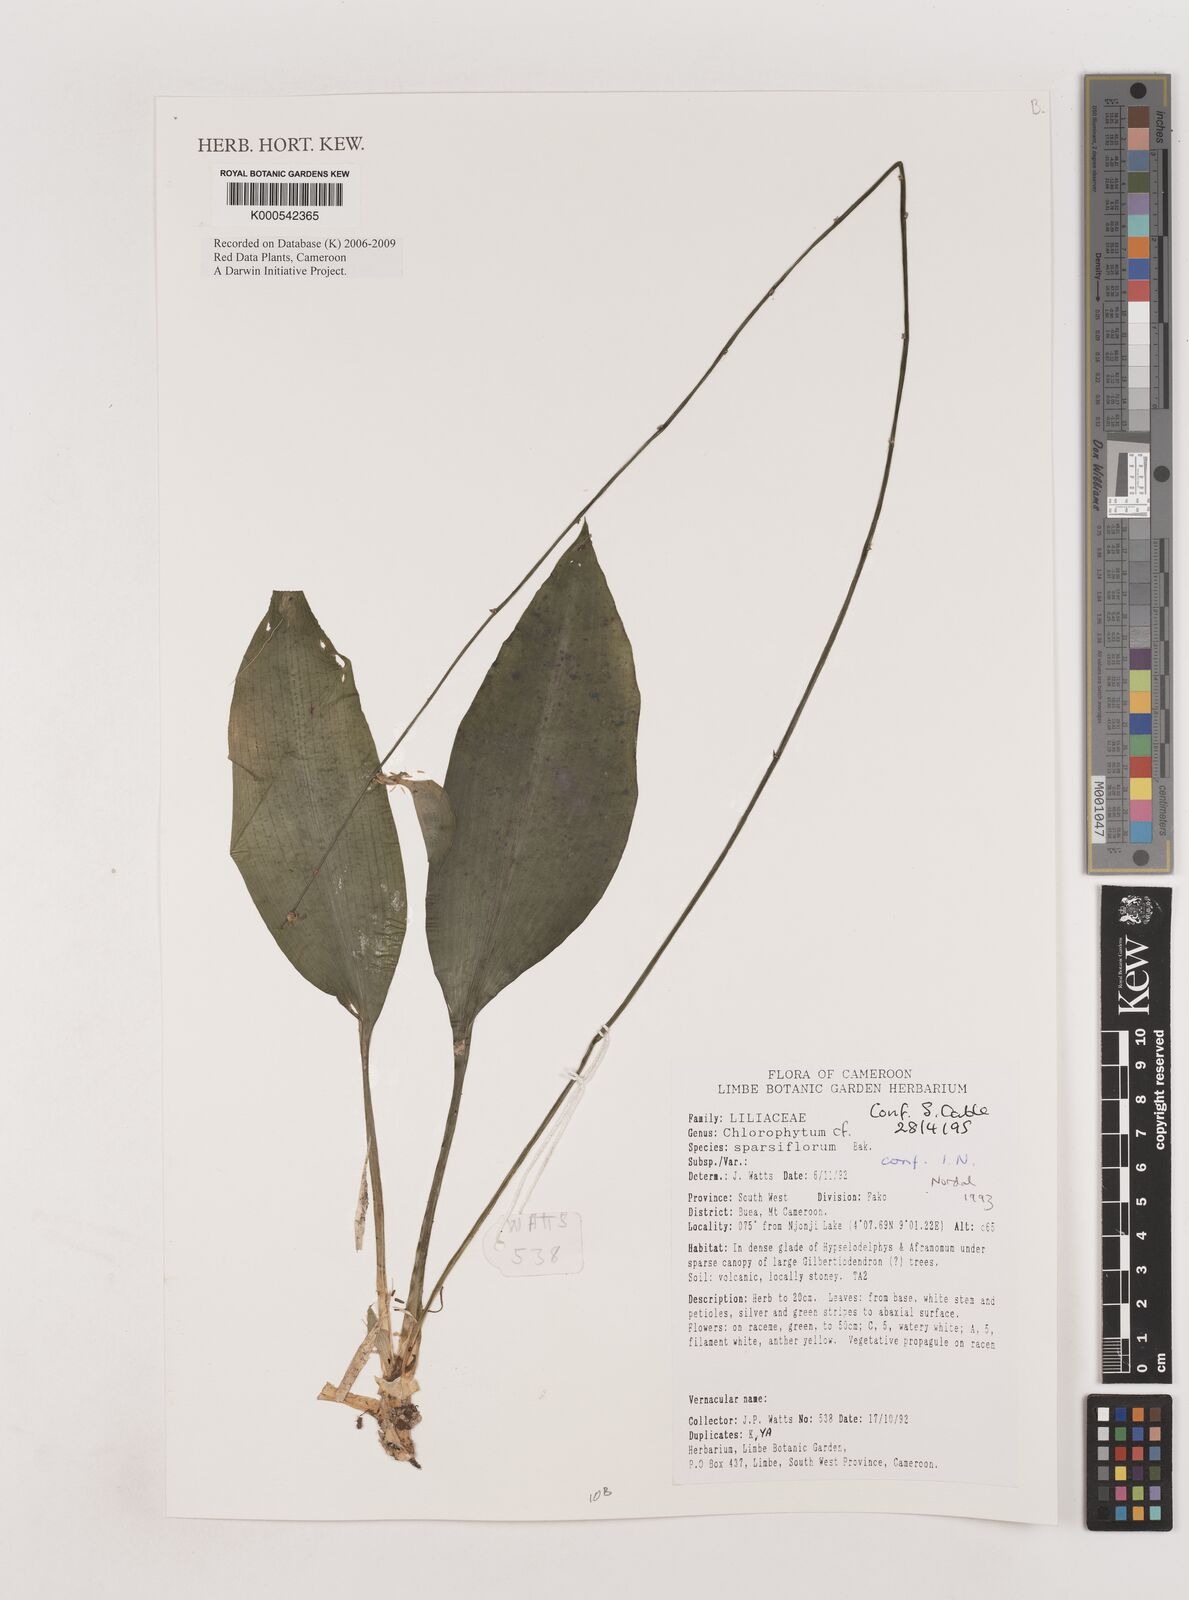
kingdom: Plantae
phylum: Tracheophyta
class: Liliopsida
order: Asparagales
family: Asparagaceae
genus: Chlorophytum
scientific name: Chlorophytum sparsiflorum
